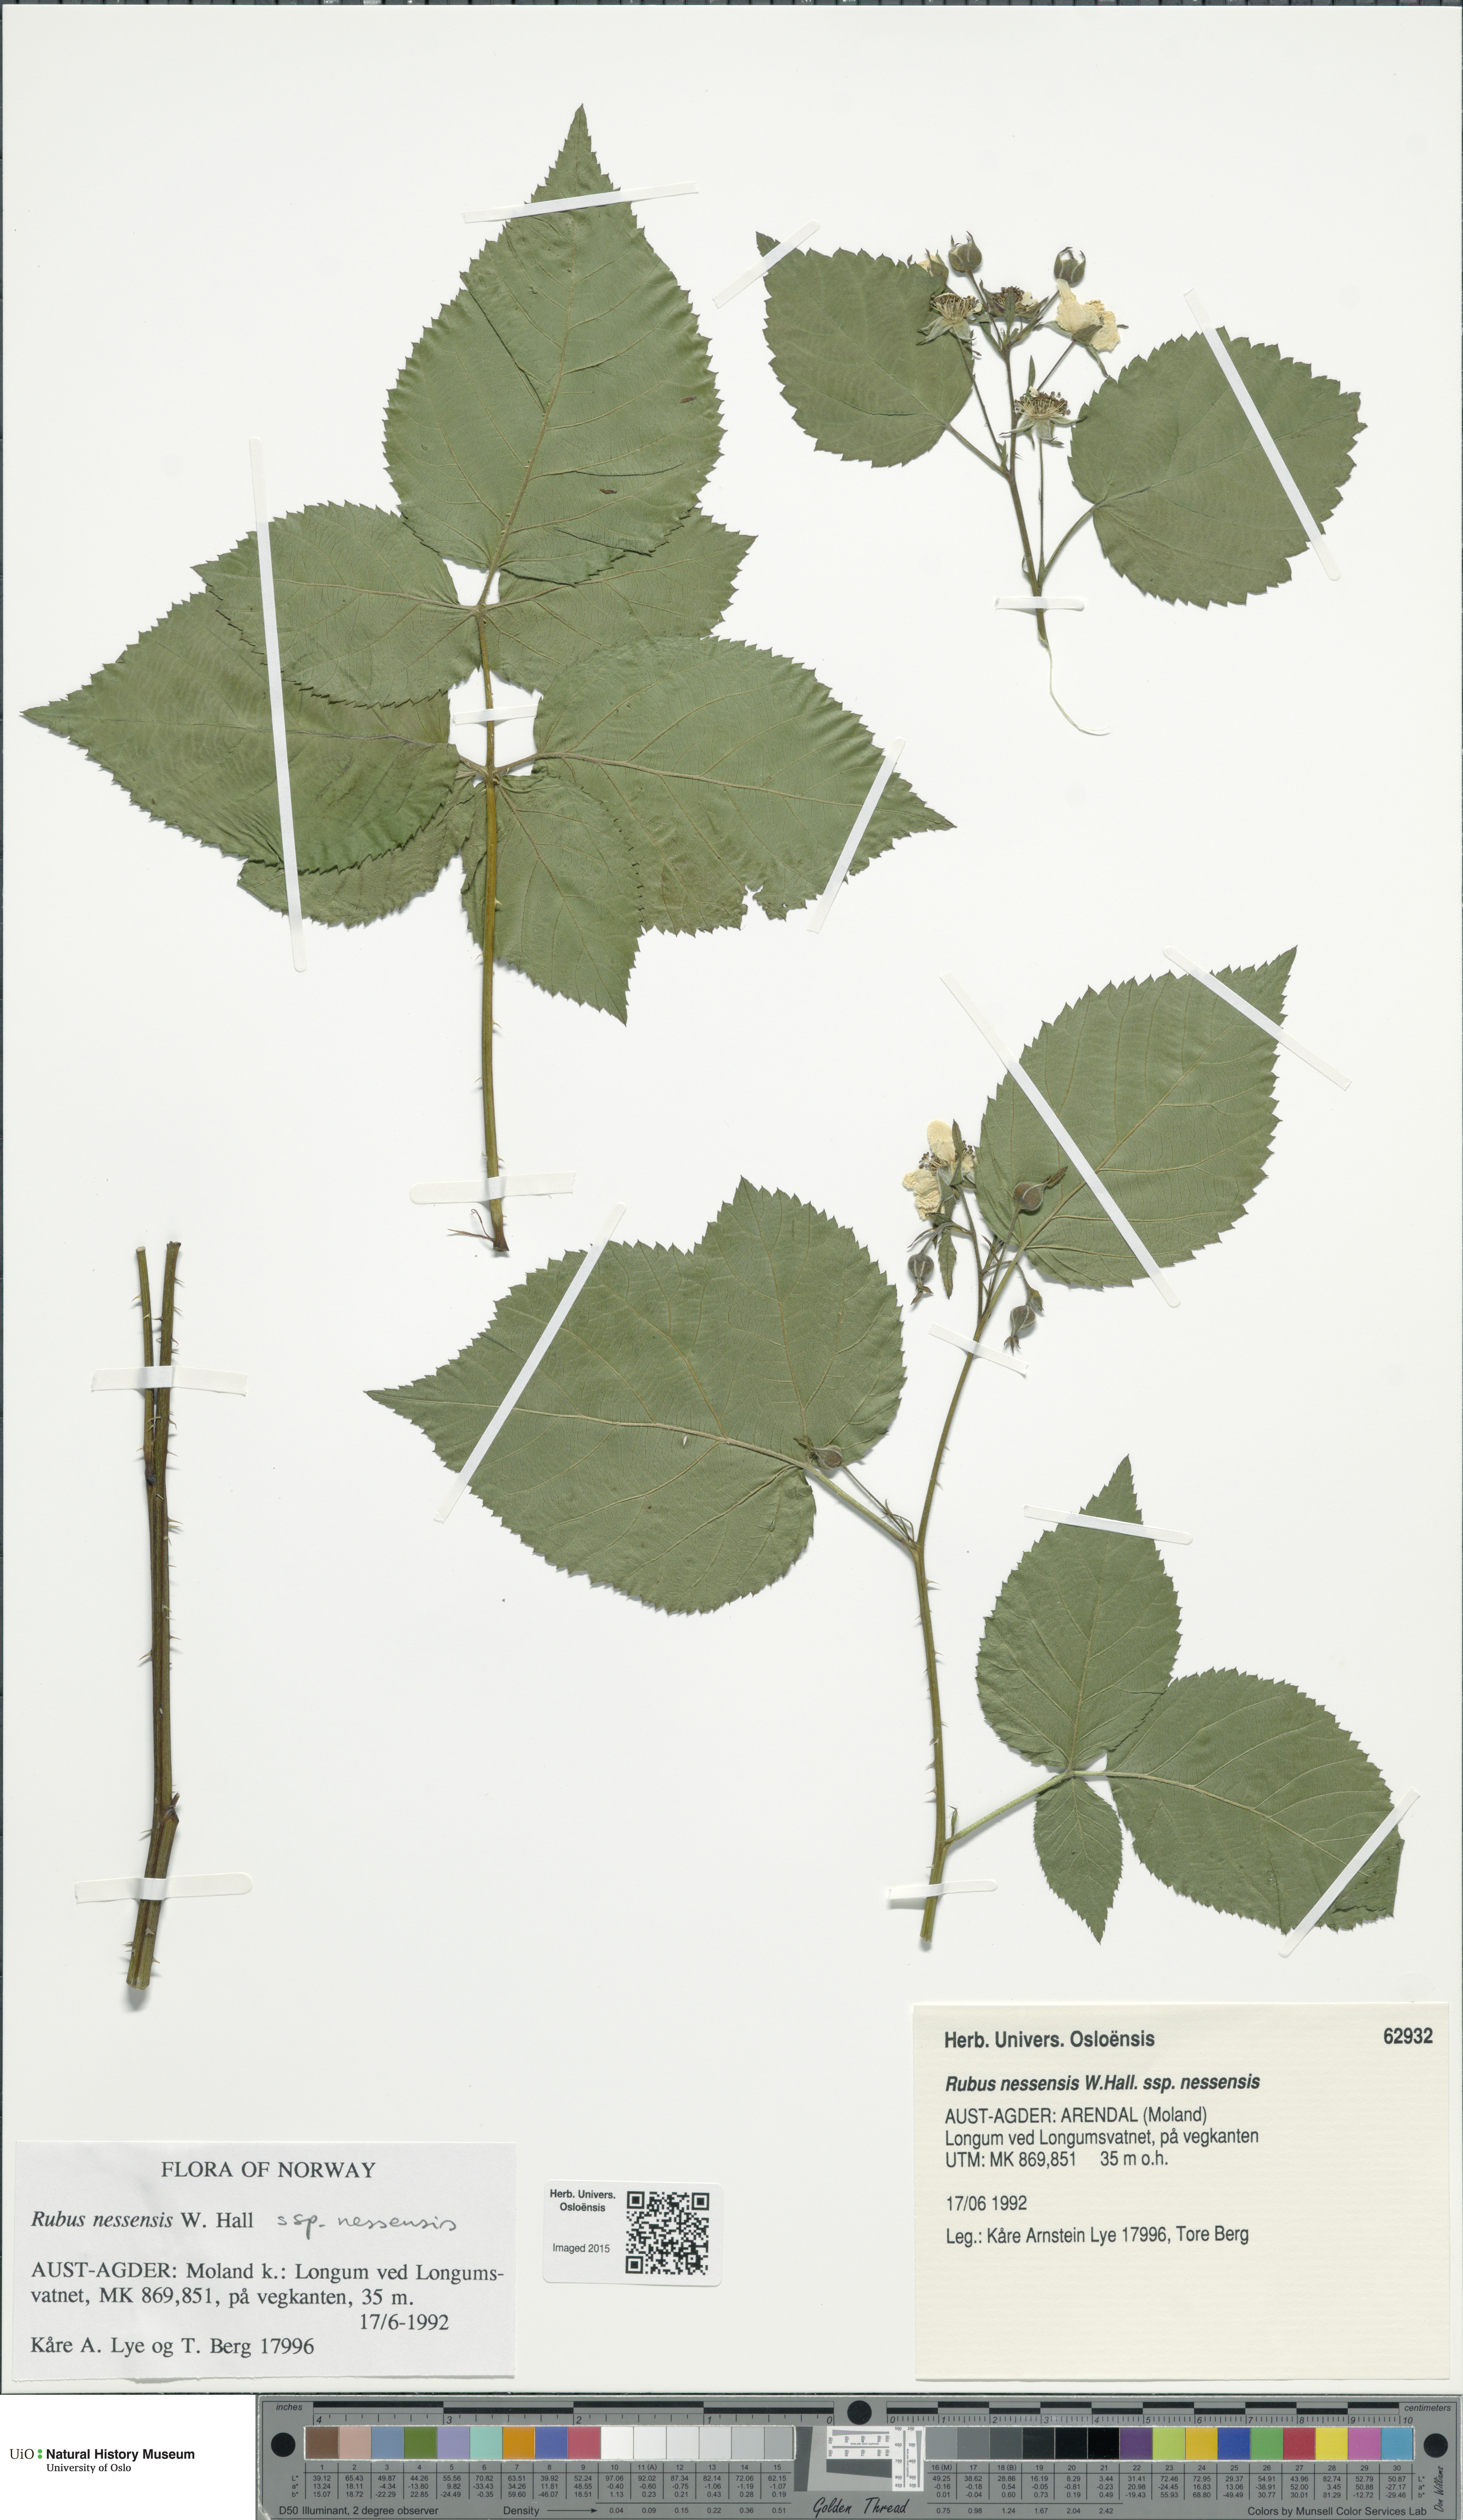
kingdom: Plantae
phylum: Tracheophyta
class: Magnoliopsida
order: Rosales
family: Rosaceae
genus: Rubus
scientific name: Rubus polonicus
